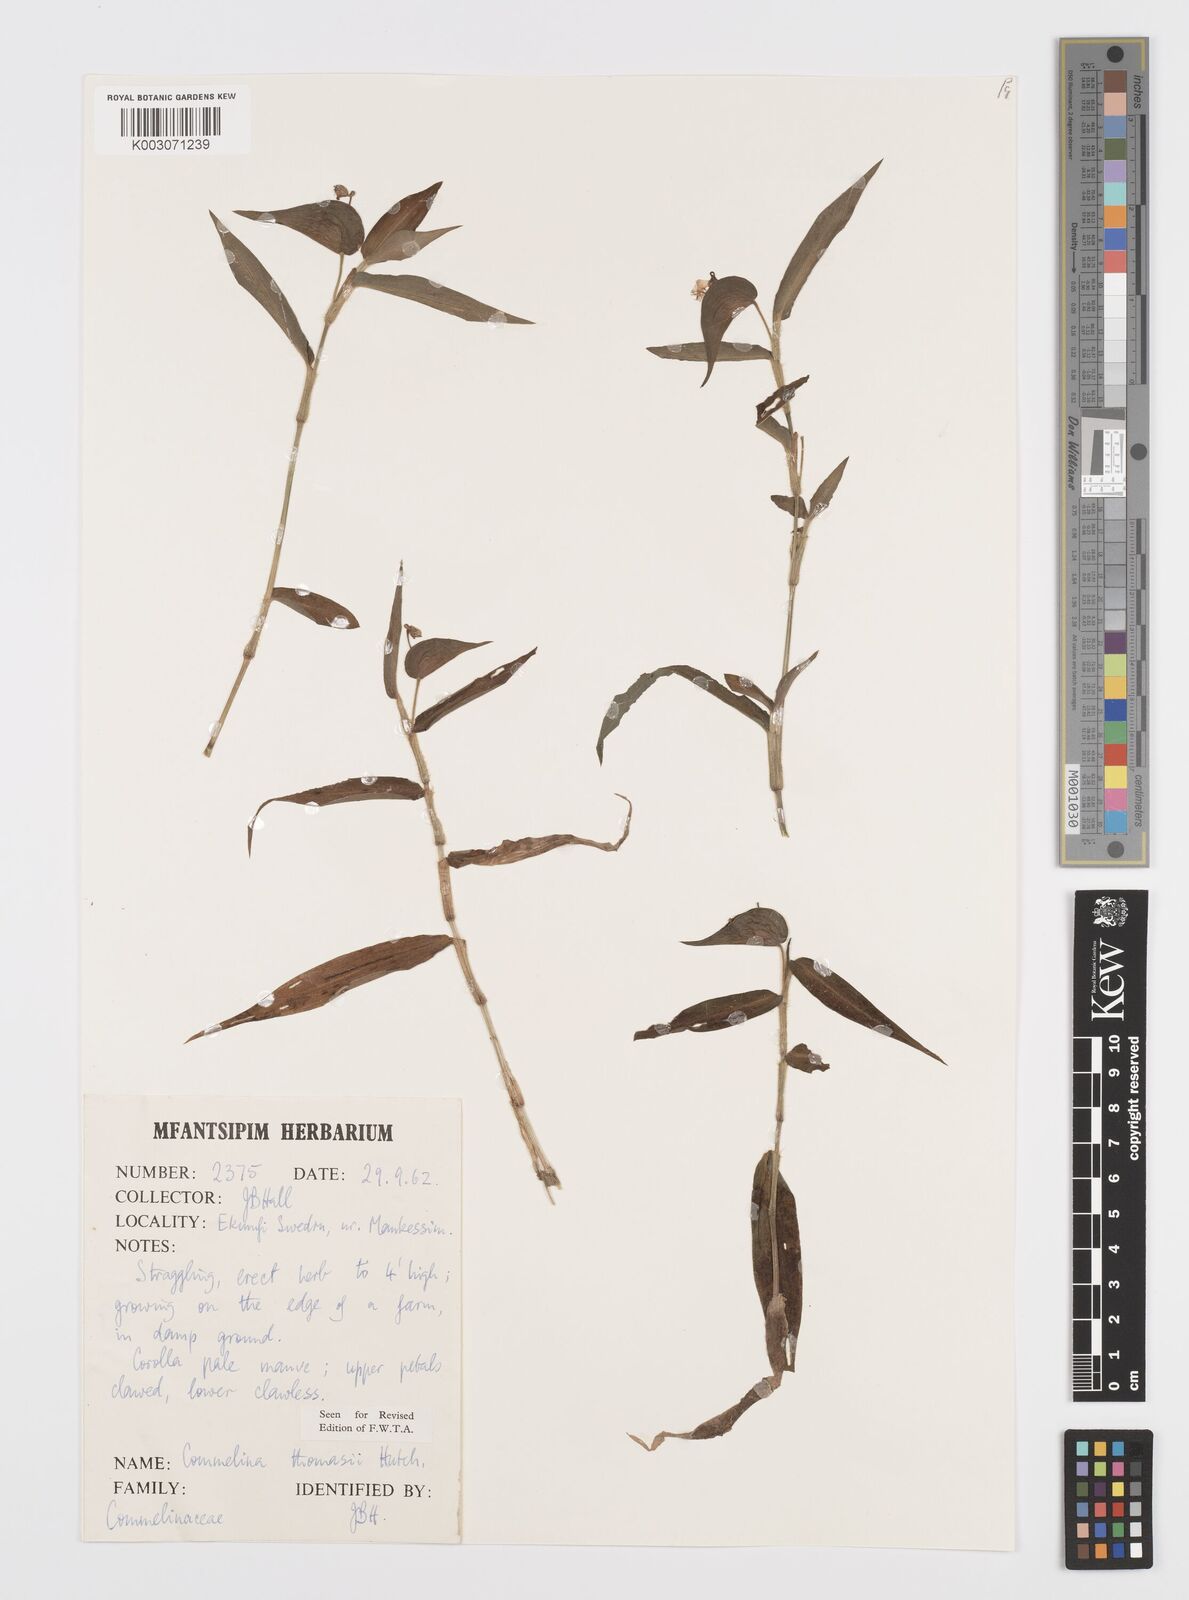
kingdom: Plantae
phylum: Tracheophyta
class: Liliopsida
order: Commelinales
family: Commelinaceae
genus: Commelina
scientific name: Commelina acutispatha
